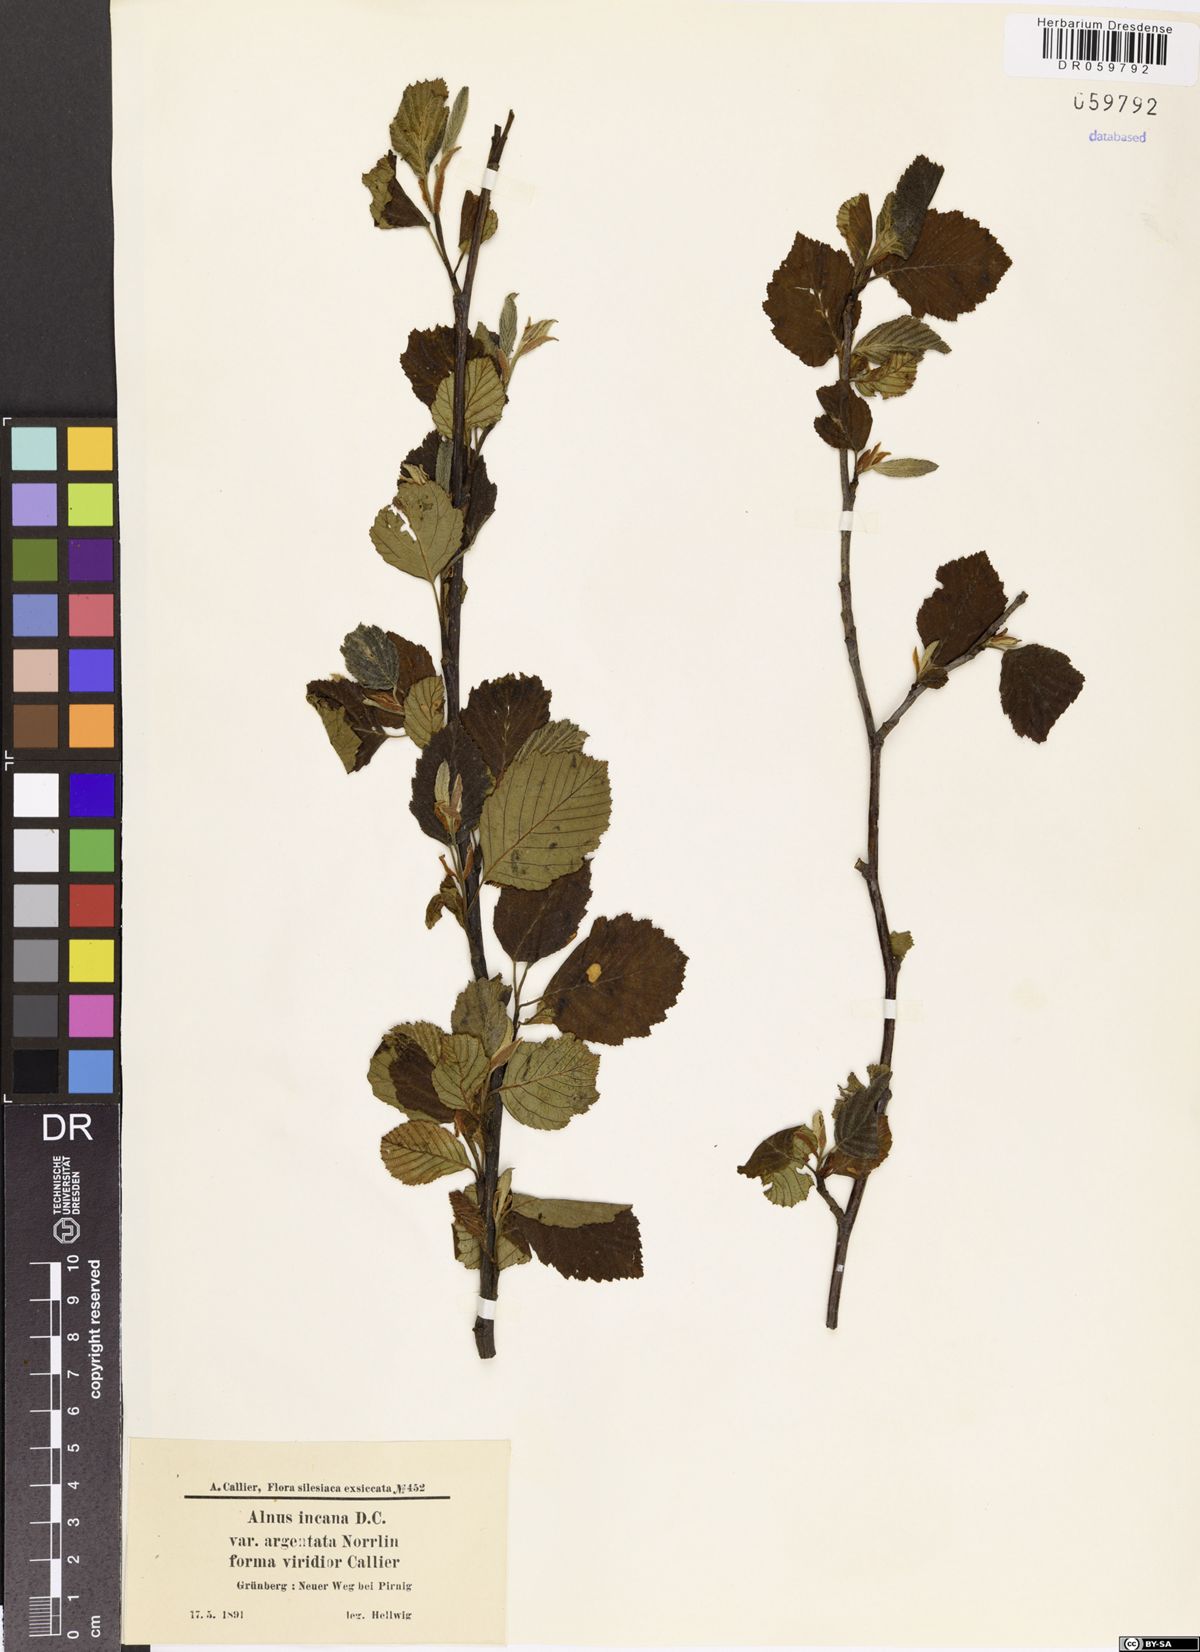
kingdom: Plantae
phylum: Tracheophyta
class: Magnoliopsida
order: Fagales
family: Betulaceae
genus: Alnus
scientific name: Alnus incana
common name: Grey alder
